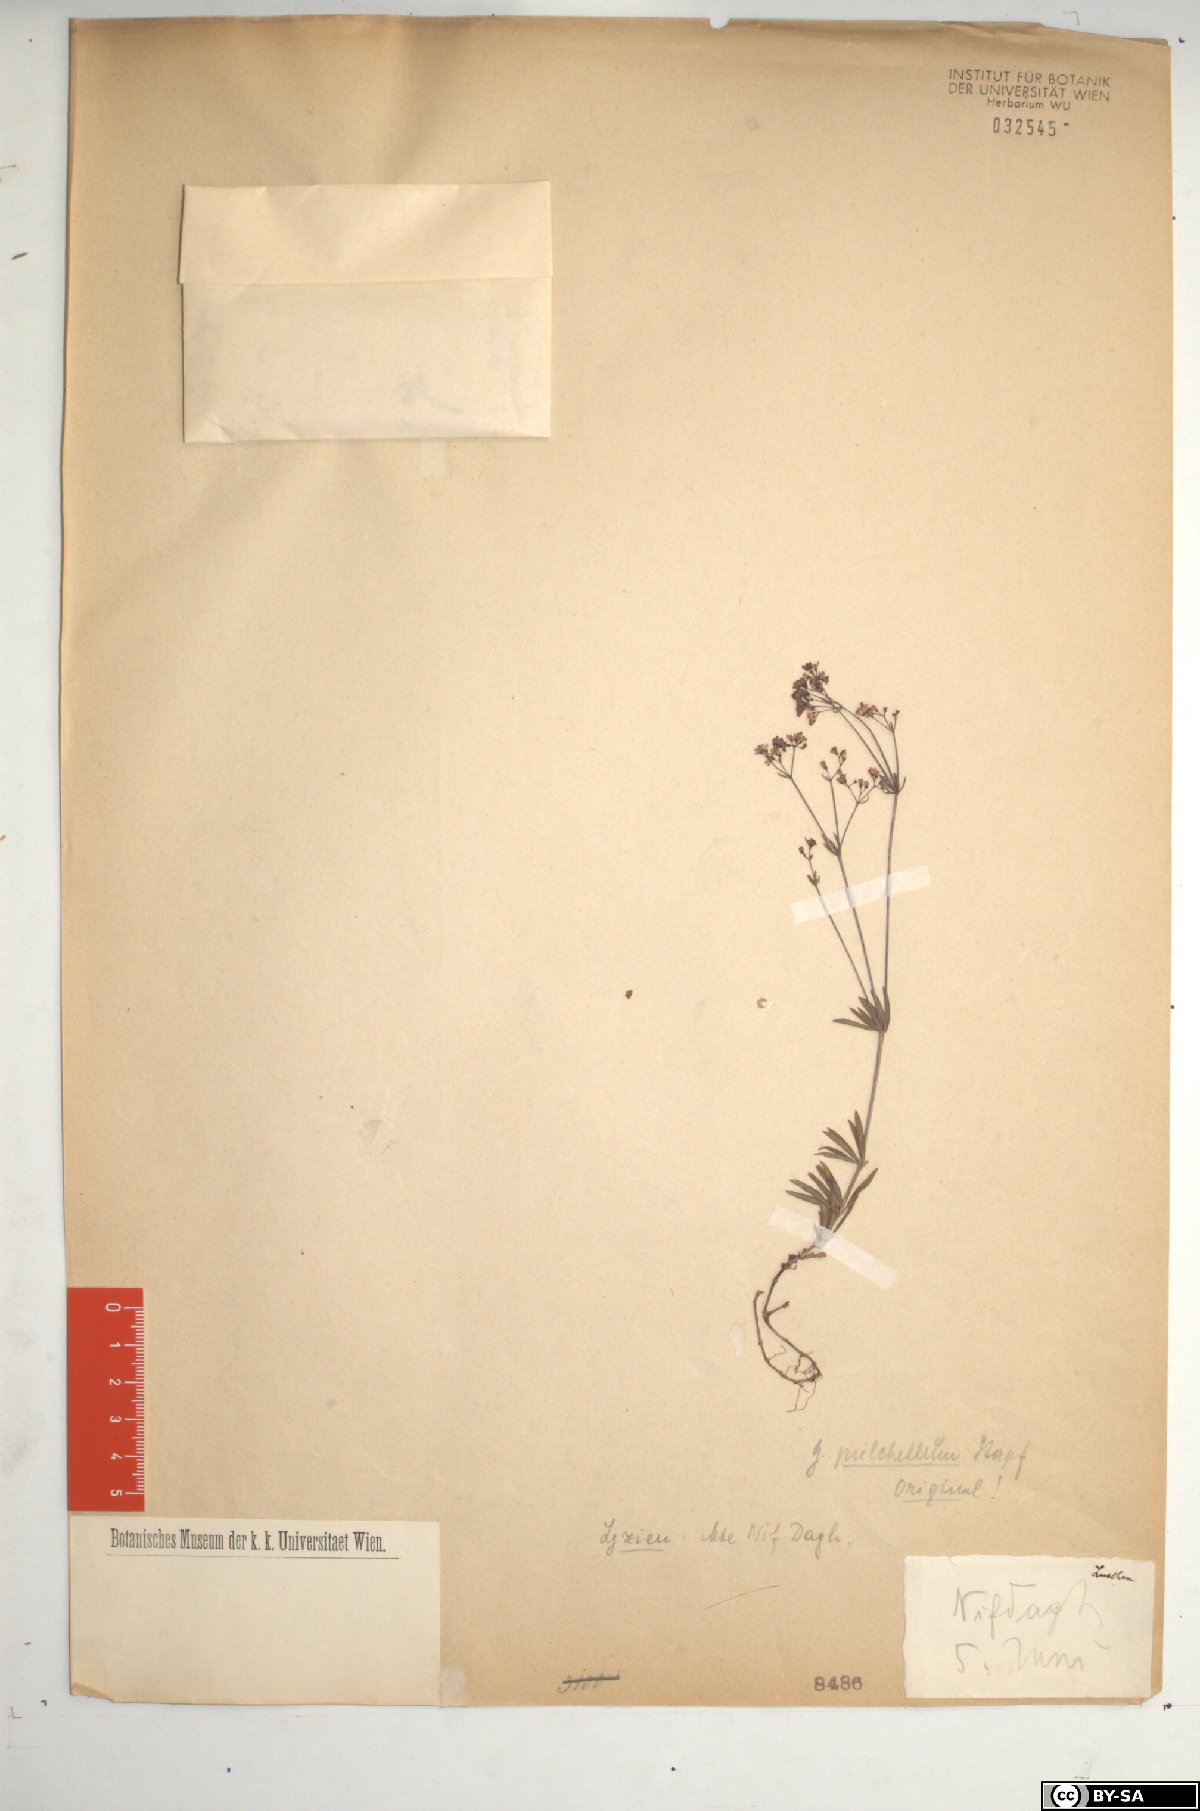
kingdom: Plantae
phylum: Tracheophyta
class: Magnoliopsida
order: Gentianales
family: Rubiaceae
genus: Galium
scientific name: Galium tmoleum
